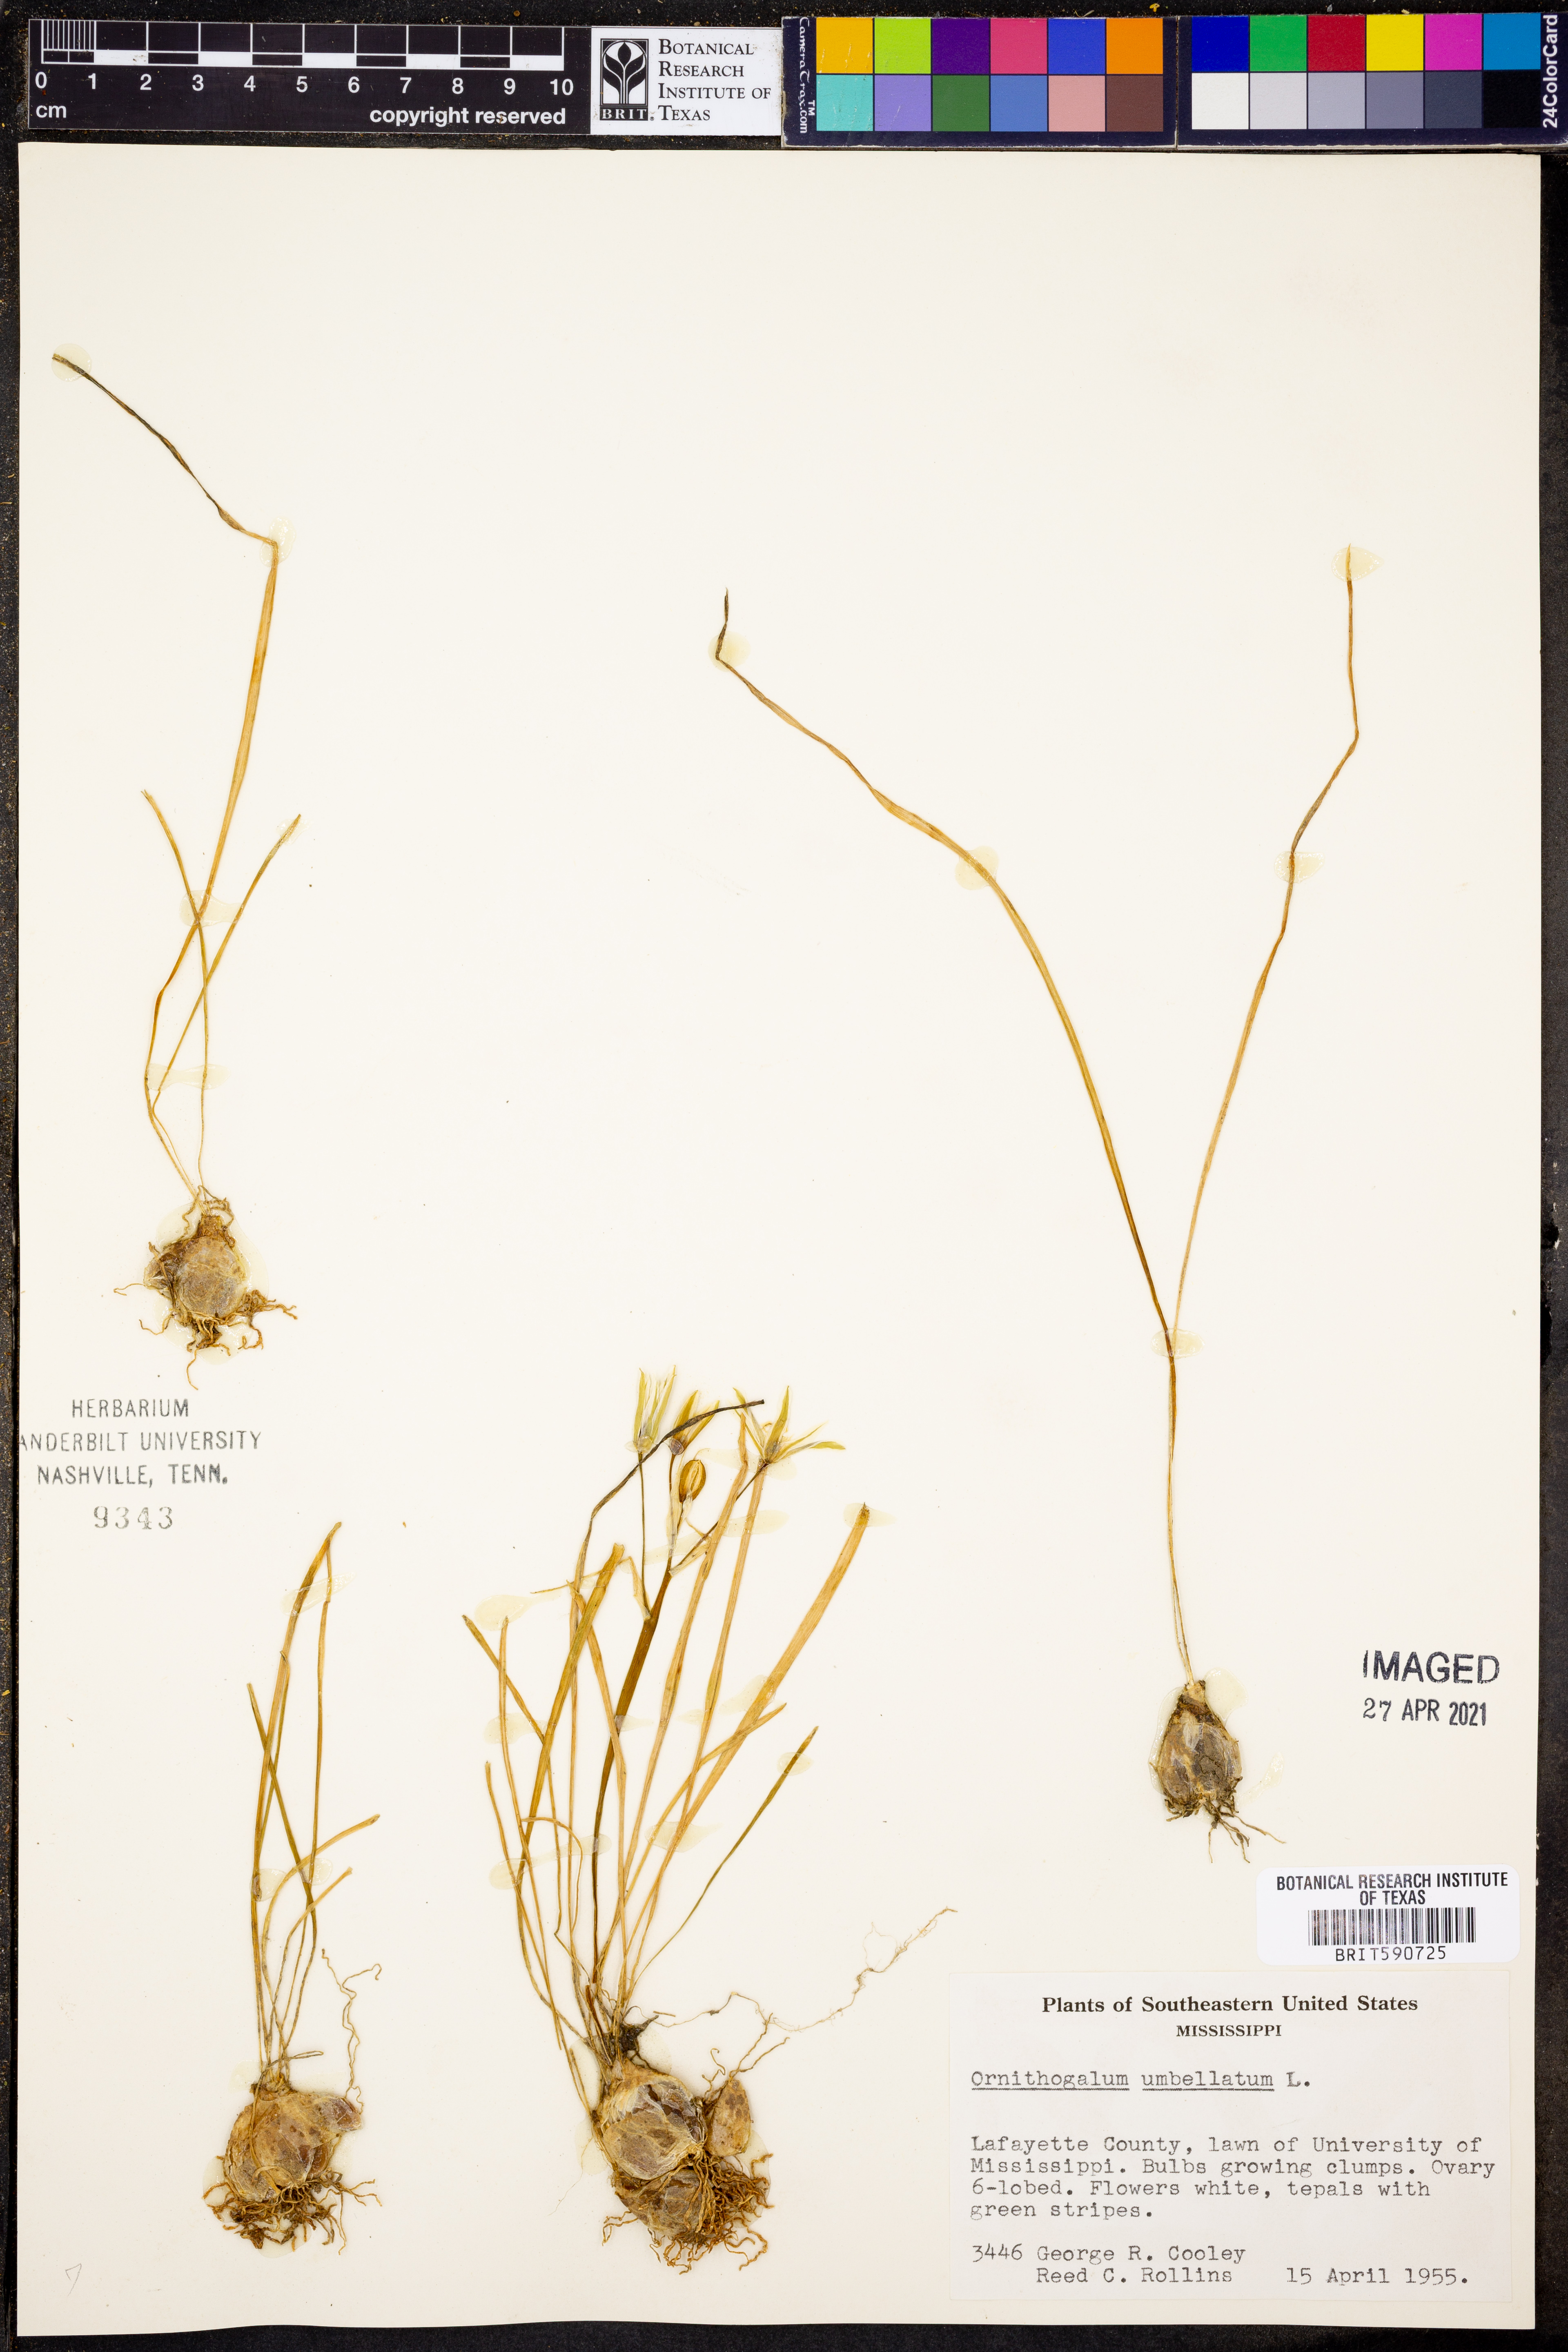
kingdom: Plantae
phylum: Tracheophyta
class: Liliopsida
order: Asparagales
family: Asparagaceae
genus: Ornithogalum
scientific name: Ornithogalum umbellatum
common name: Garden star-of-bethlehem
